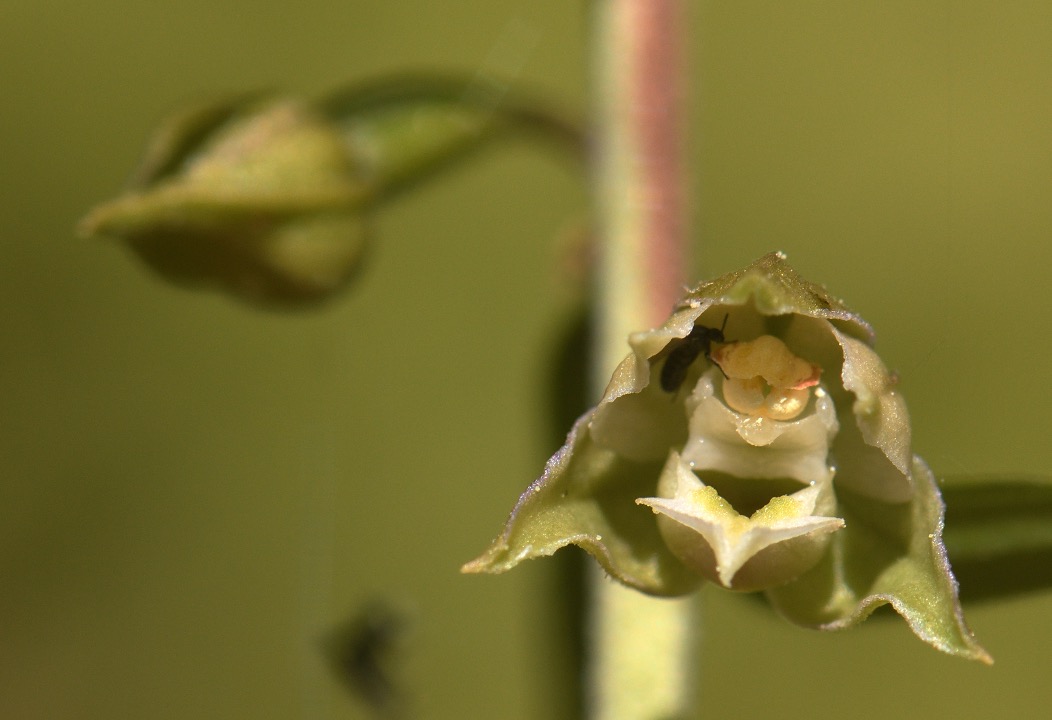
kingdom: Plantae
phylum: Tracheophyta
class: Liliopsida
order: Asparagales
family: Orchidaceae
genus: Epipactis
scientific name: Epipactis helleborine
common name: Skov-hullæbe
